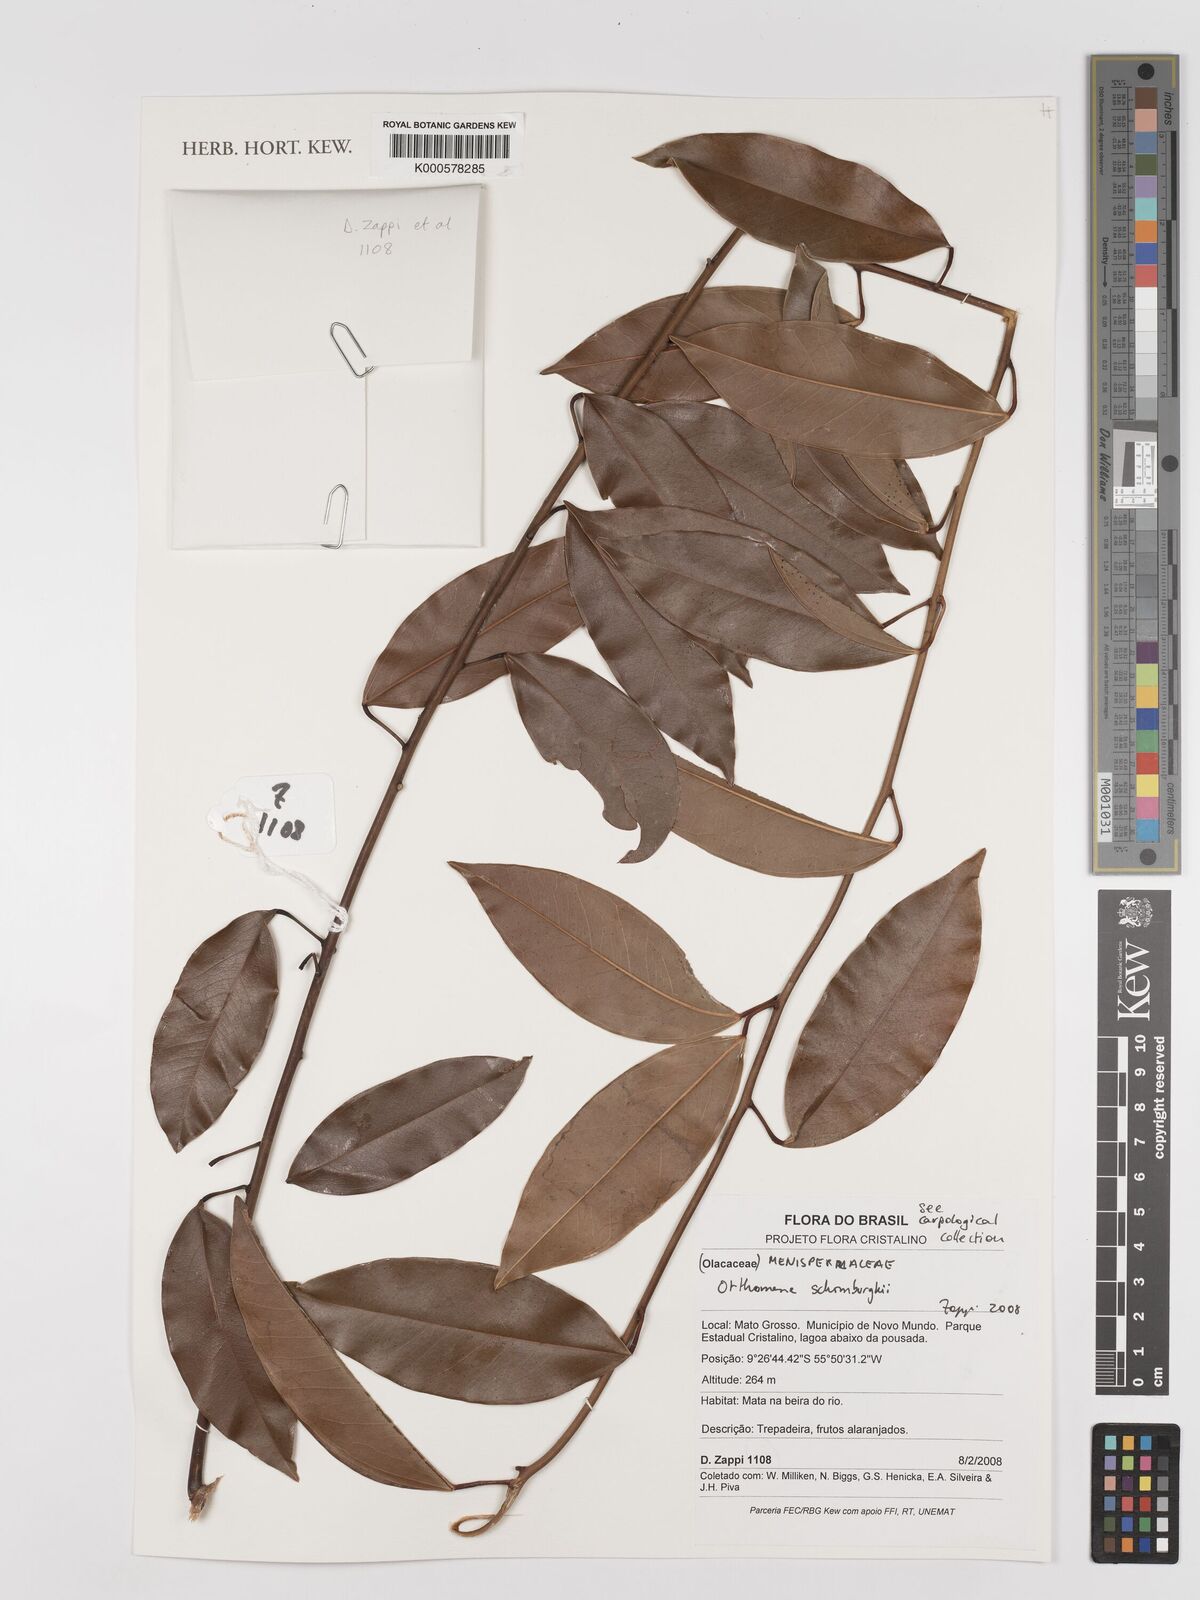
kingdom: Plantae
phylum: Tracheophyta
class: Magnoliopsida
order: Ranunculales
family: Menispermaceae
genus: Orthomene
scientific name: Orthomene schomburgkii
